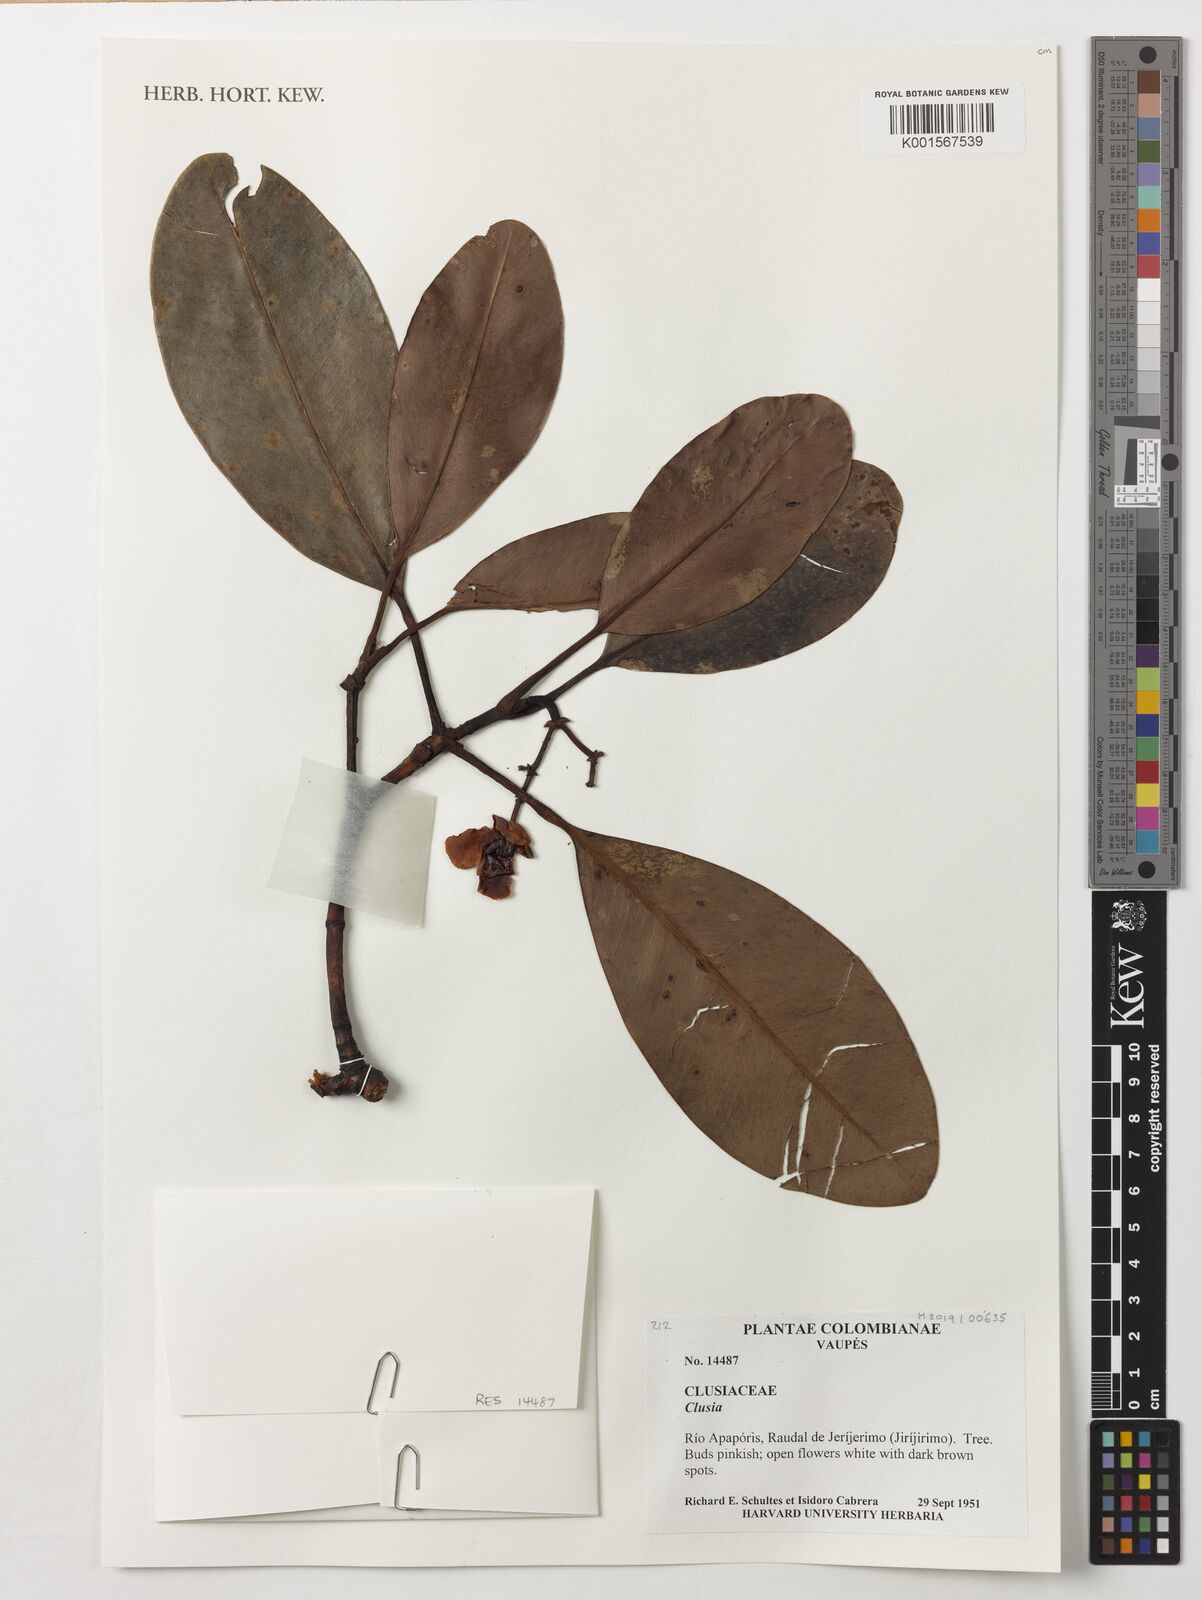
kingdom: Plantae
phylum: Tracheophyta
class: Magnoliopsida
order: Malpighiales
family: Clusiaceae
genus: Clusia
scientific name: Clusia
